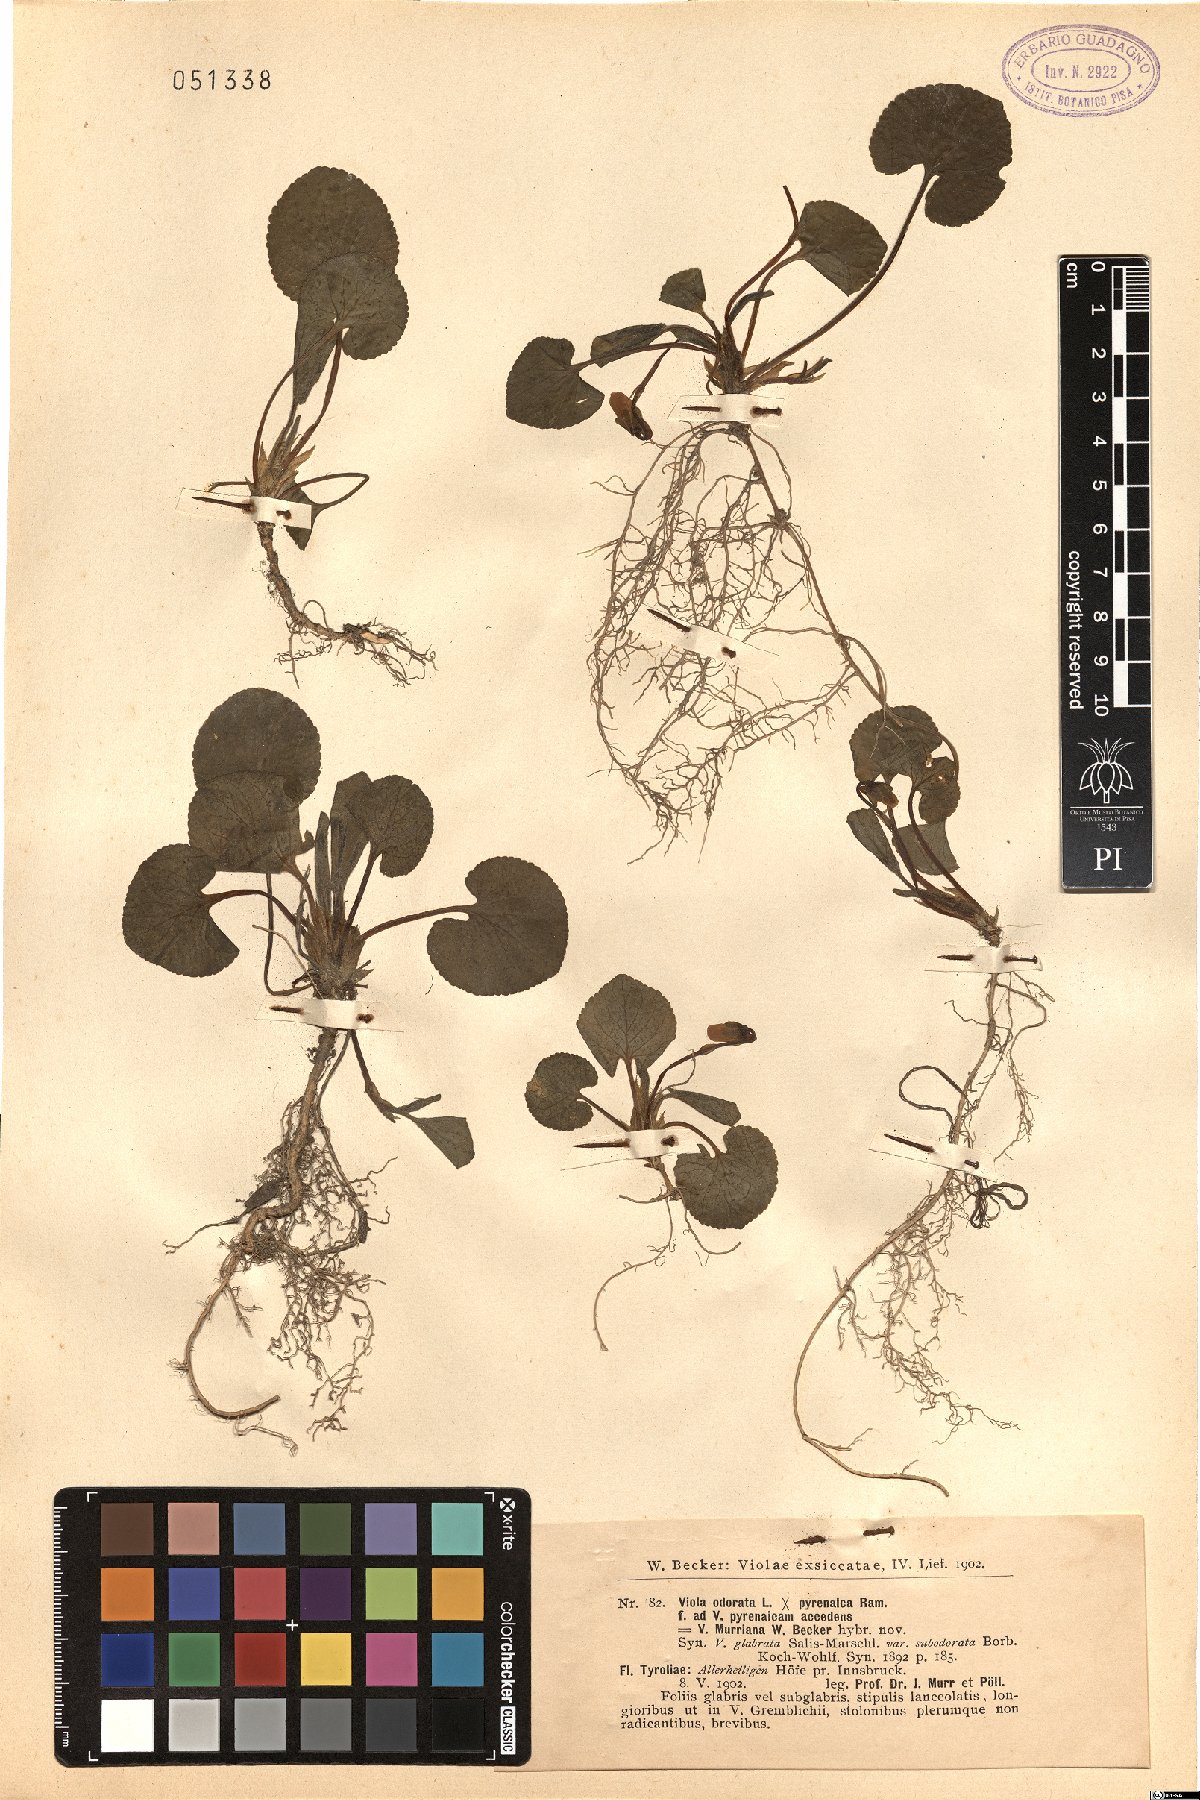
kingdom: Plantae
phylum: Tracheophyta
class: Magnoliopsida
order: Malpighiales
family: Violaceae
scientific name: Violaceae
